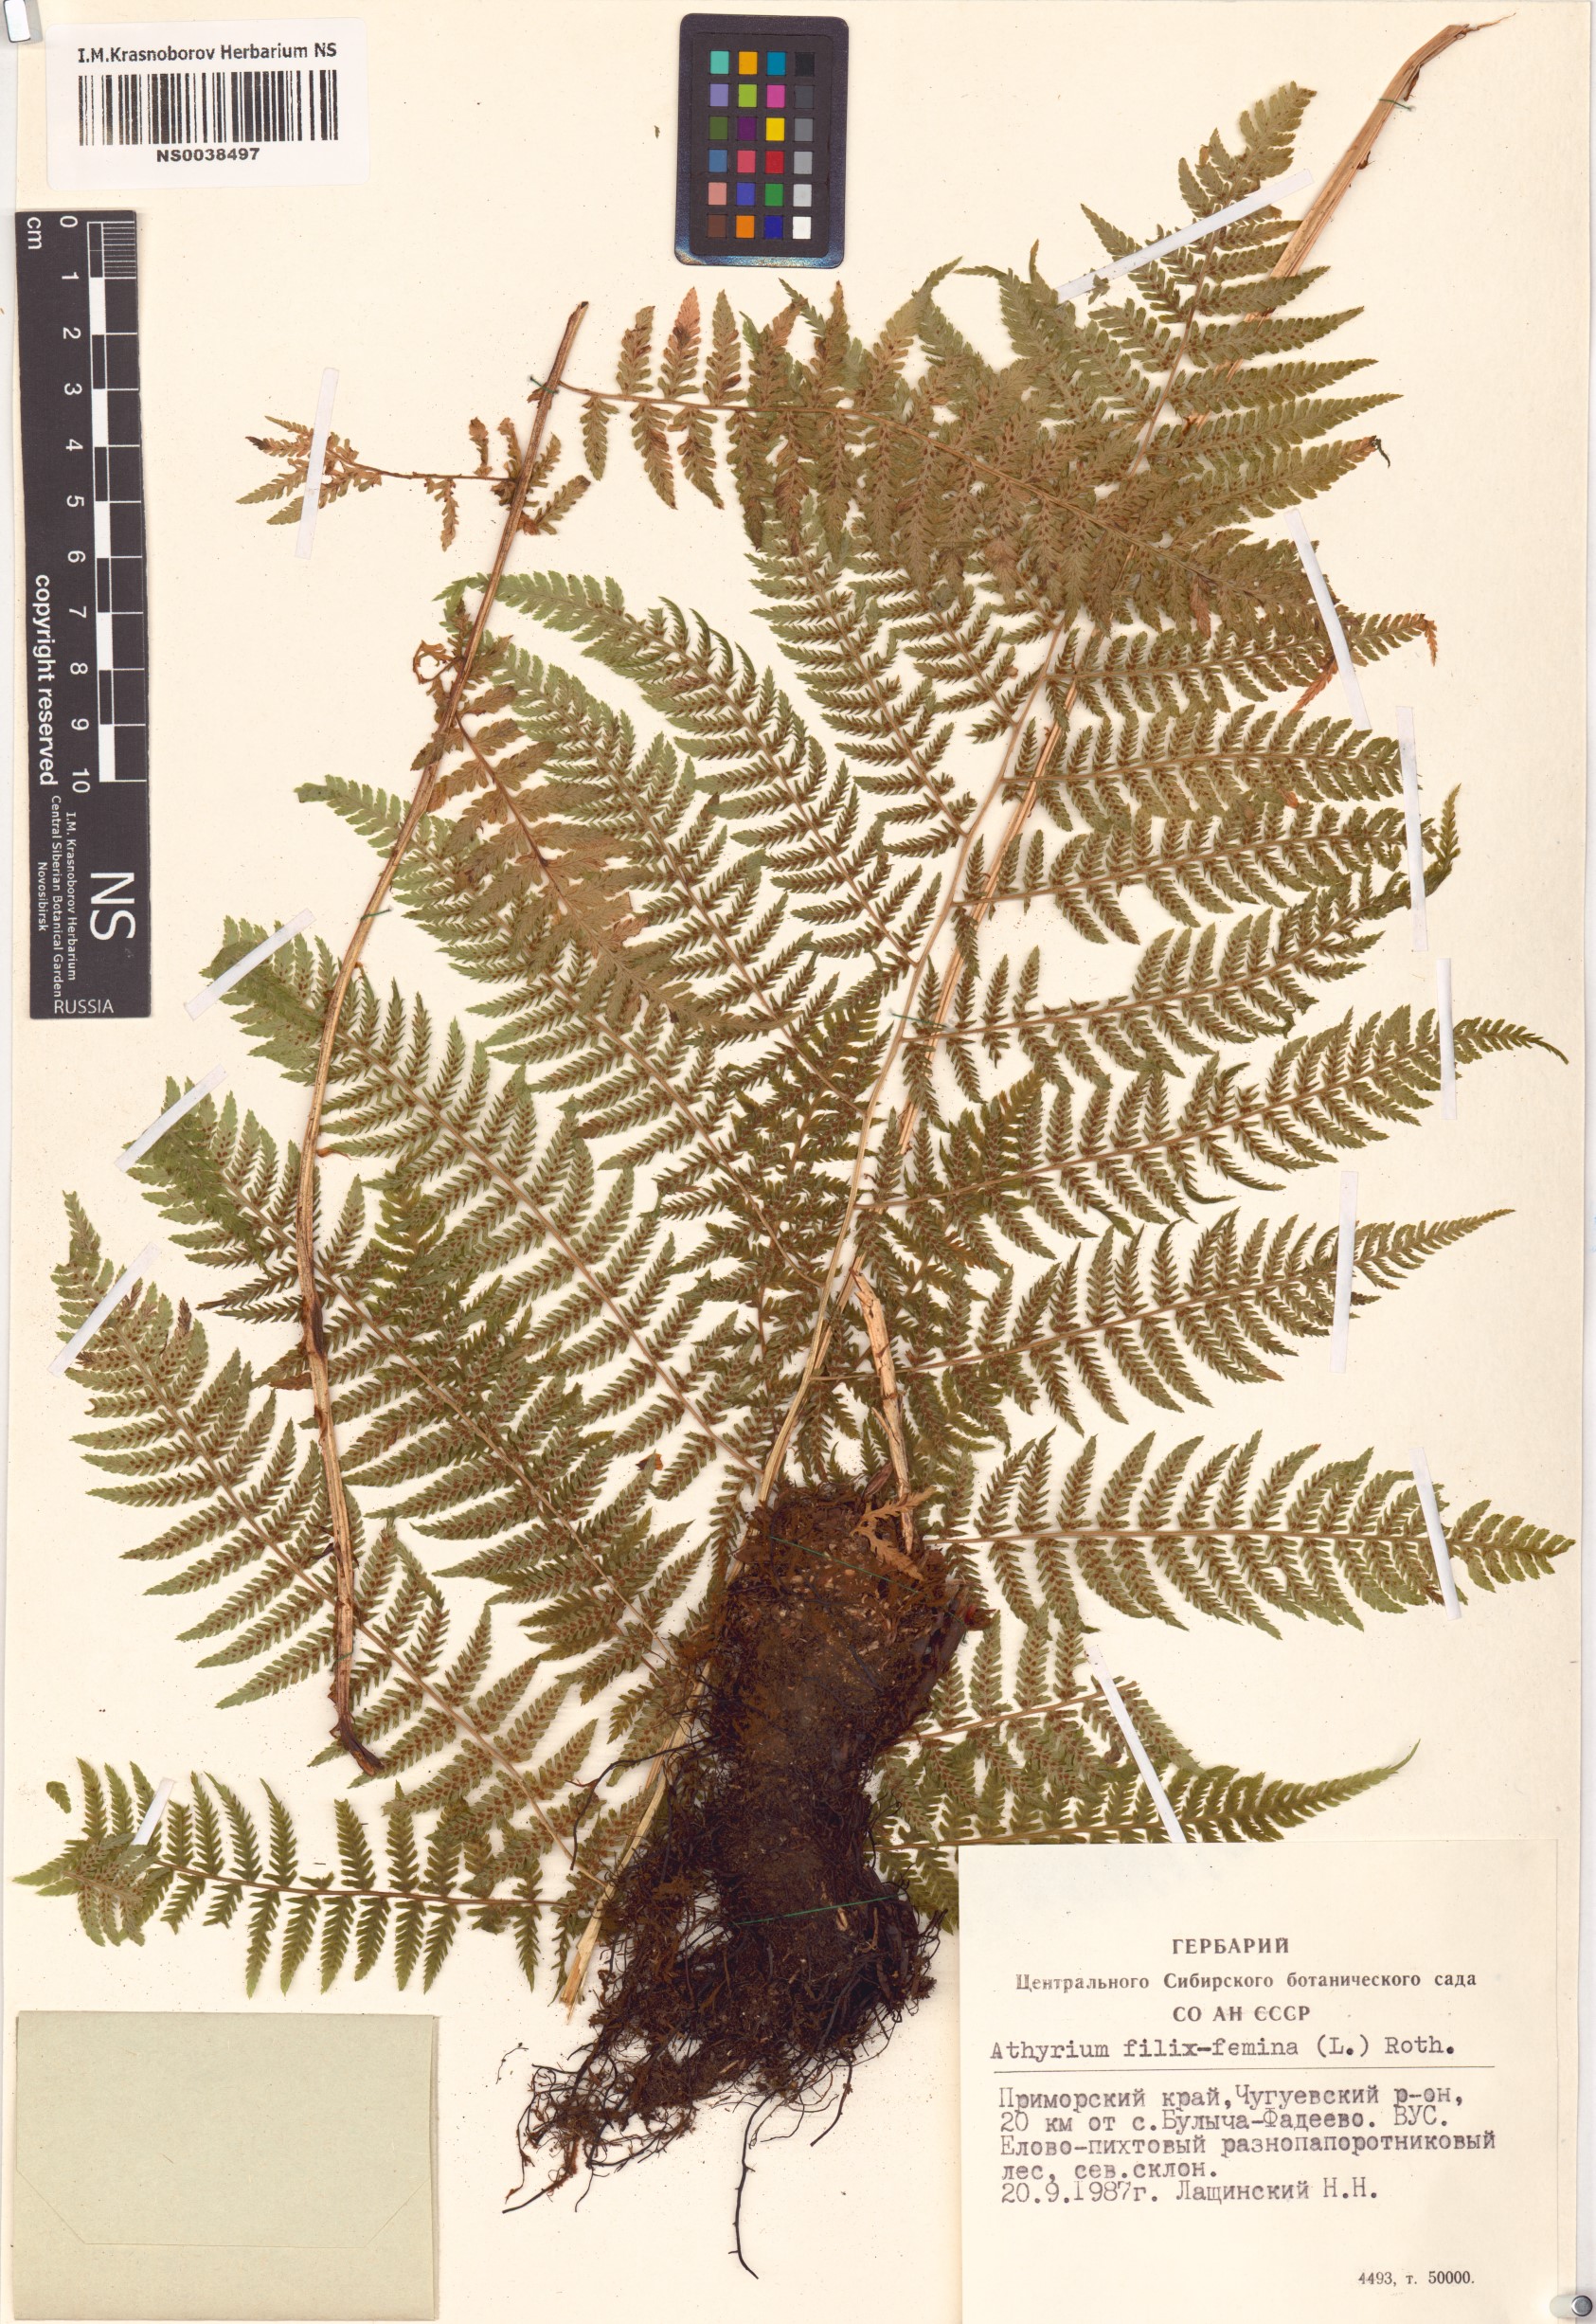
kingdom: Plantae
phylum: Tracheophyta
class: Polypodiopsida
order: Polypodiales
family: Athyriaceae
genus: Athyrium
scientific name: Athyrium filix-femina
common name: Lady fern
